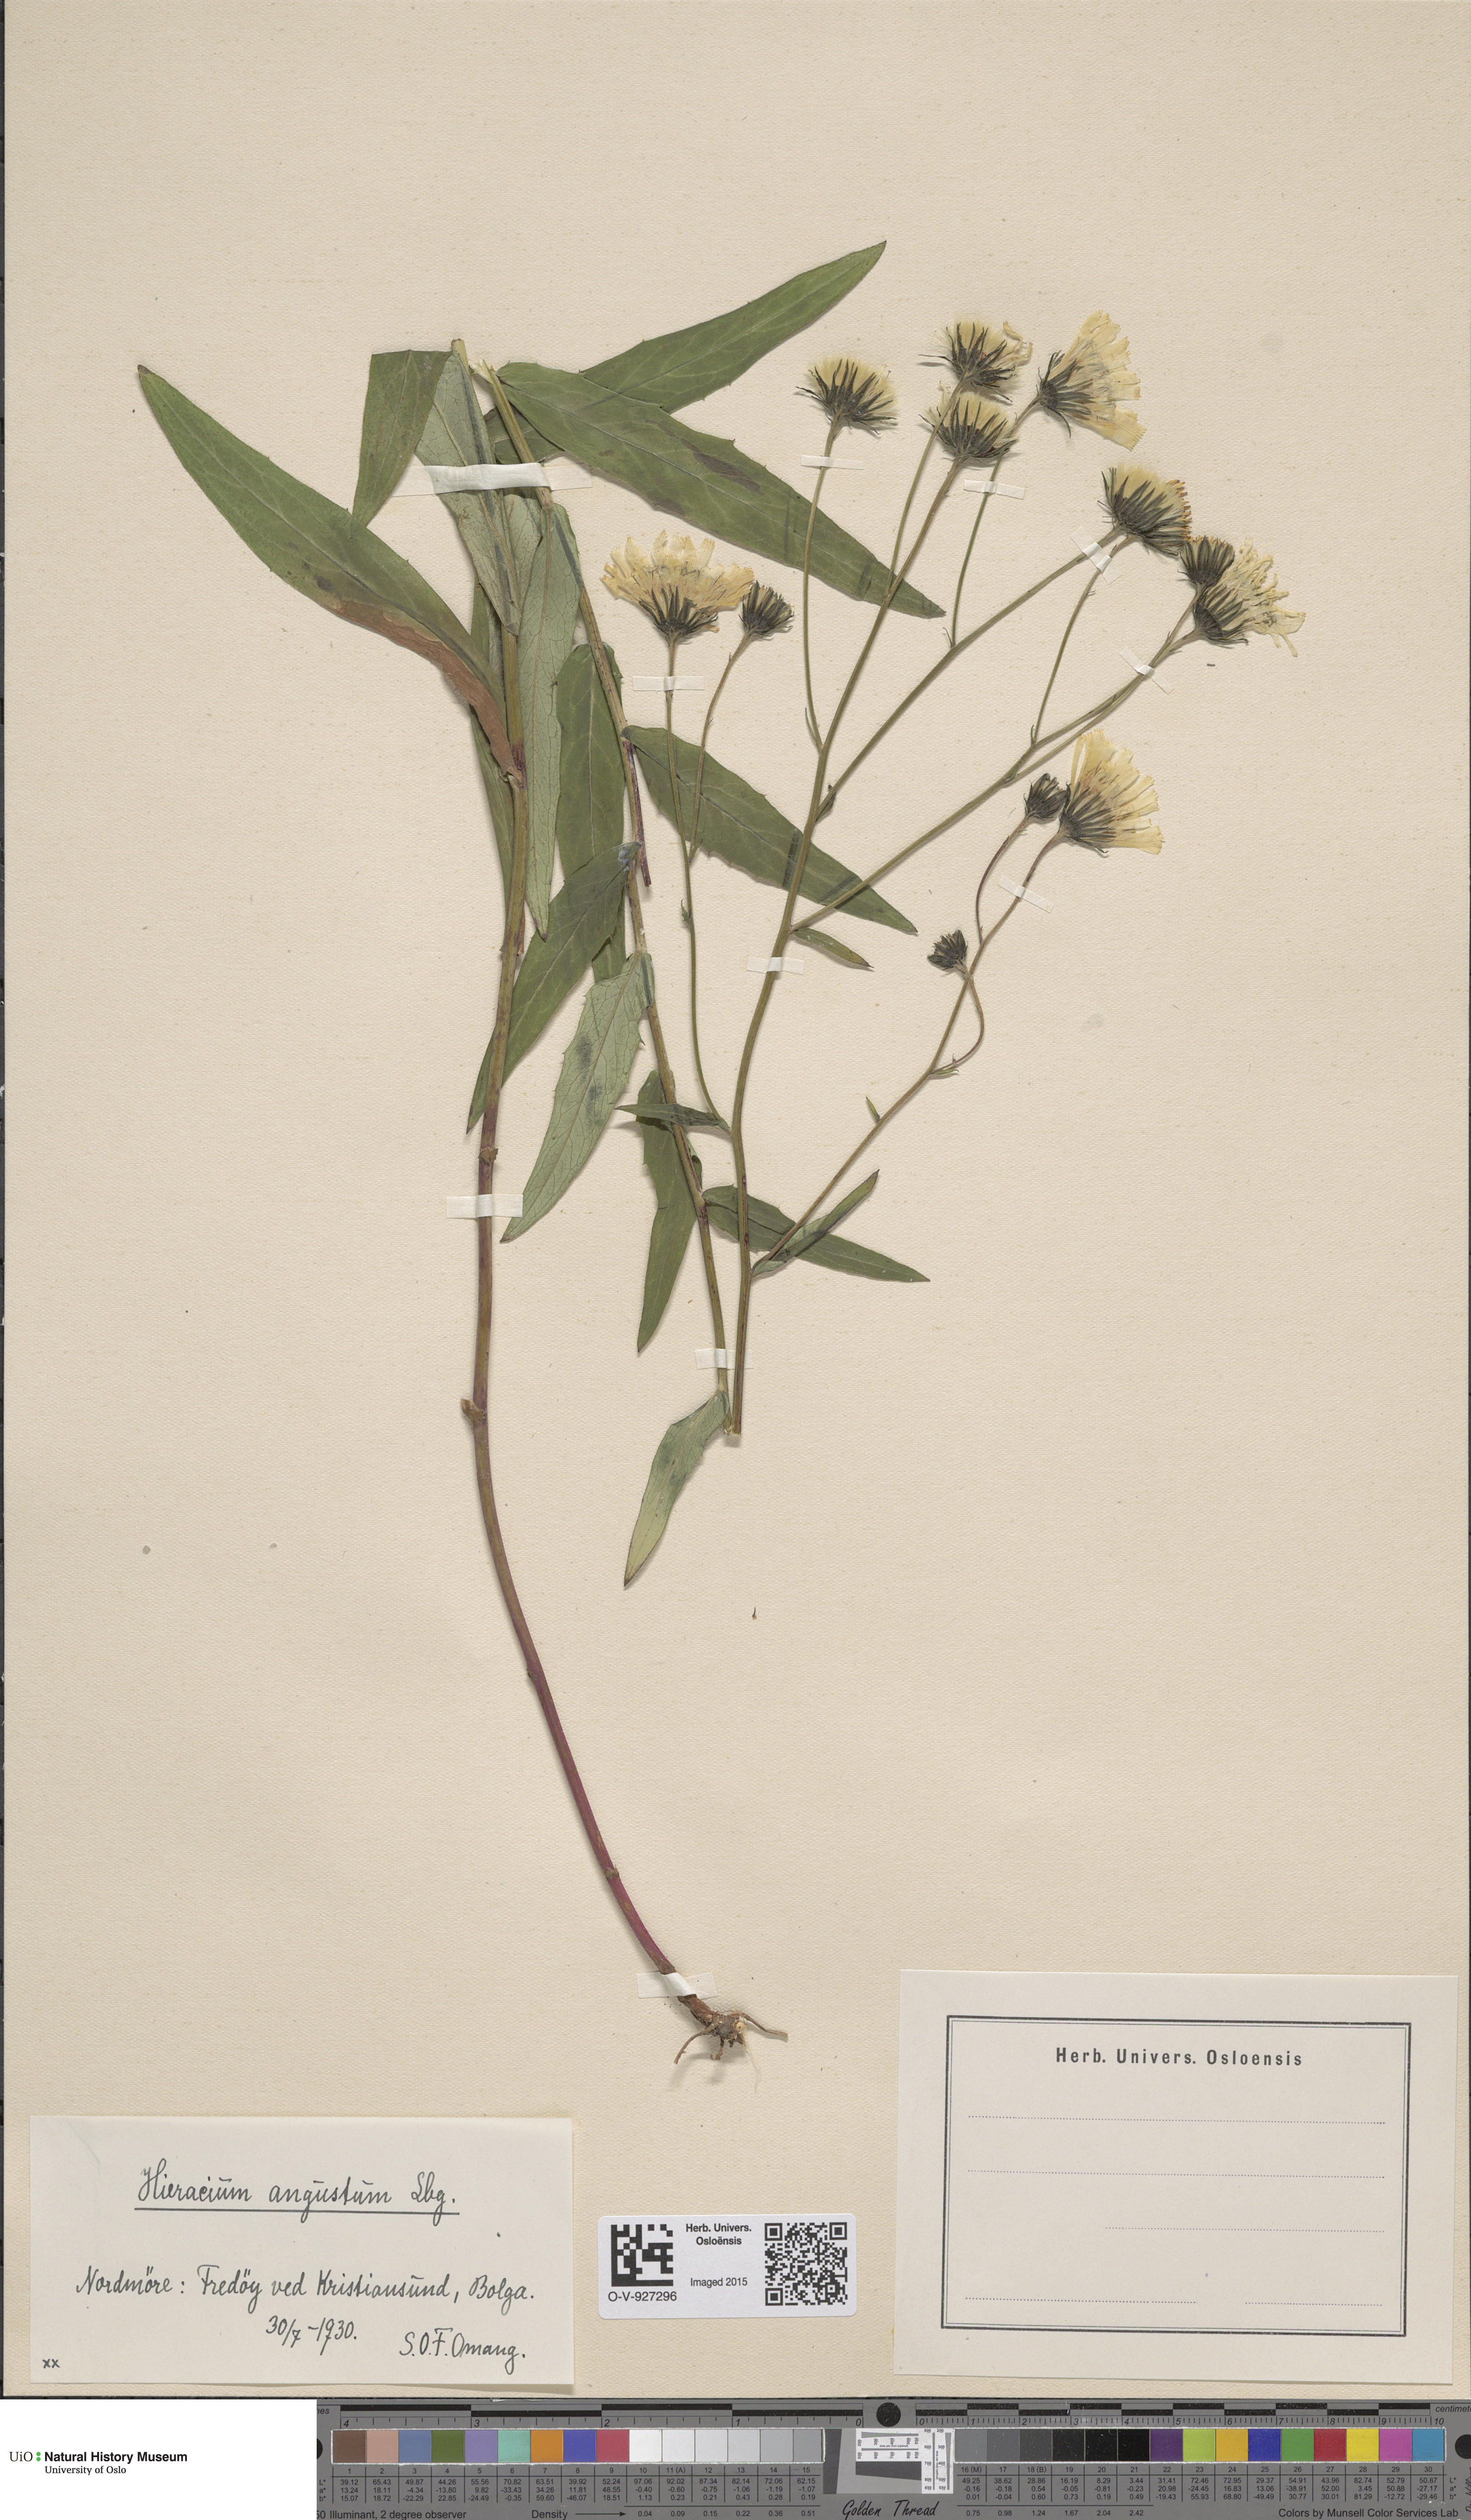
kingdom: Plantae
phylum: Tracheophyta
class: Magnoliopsida
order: Asterales
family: Asteraceae
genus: Hieracium
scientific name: Hieracium angustum
